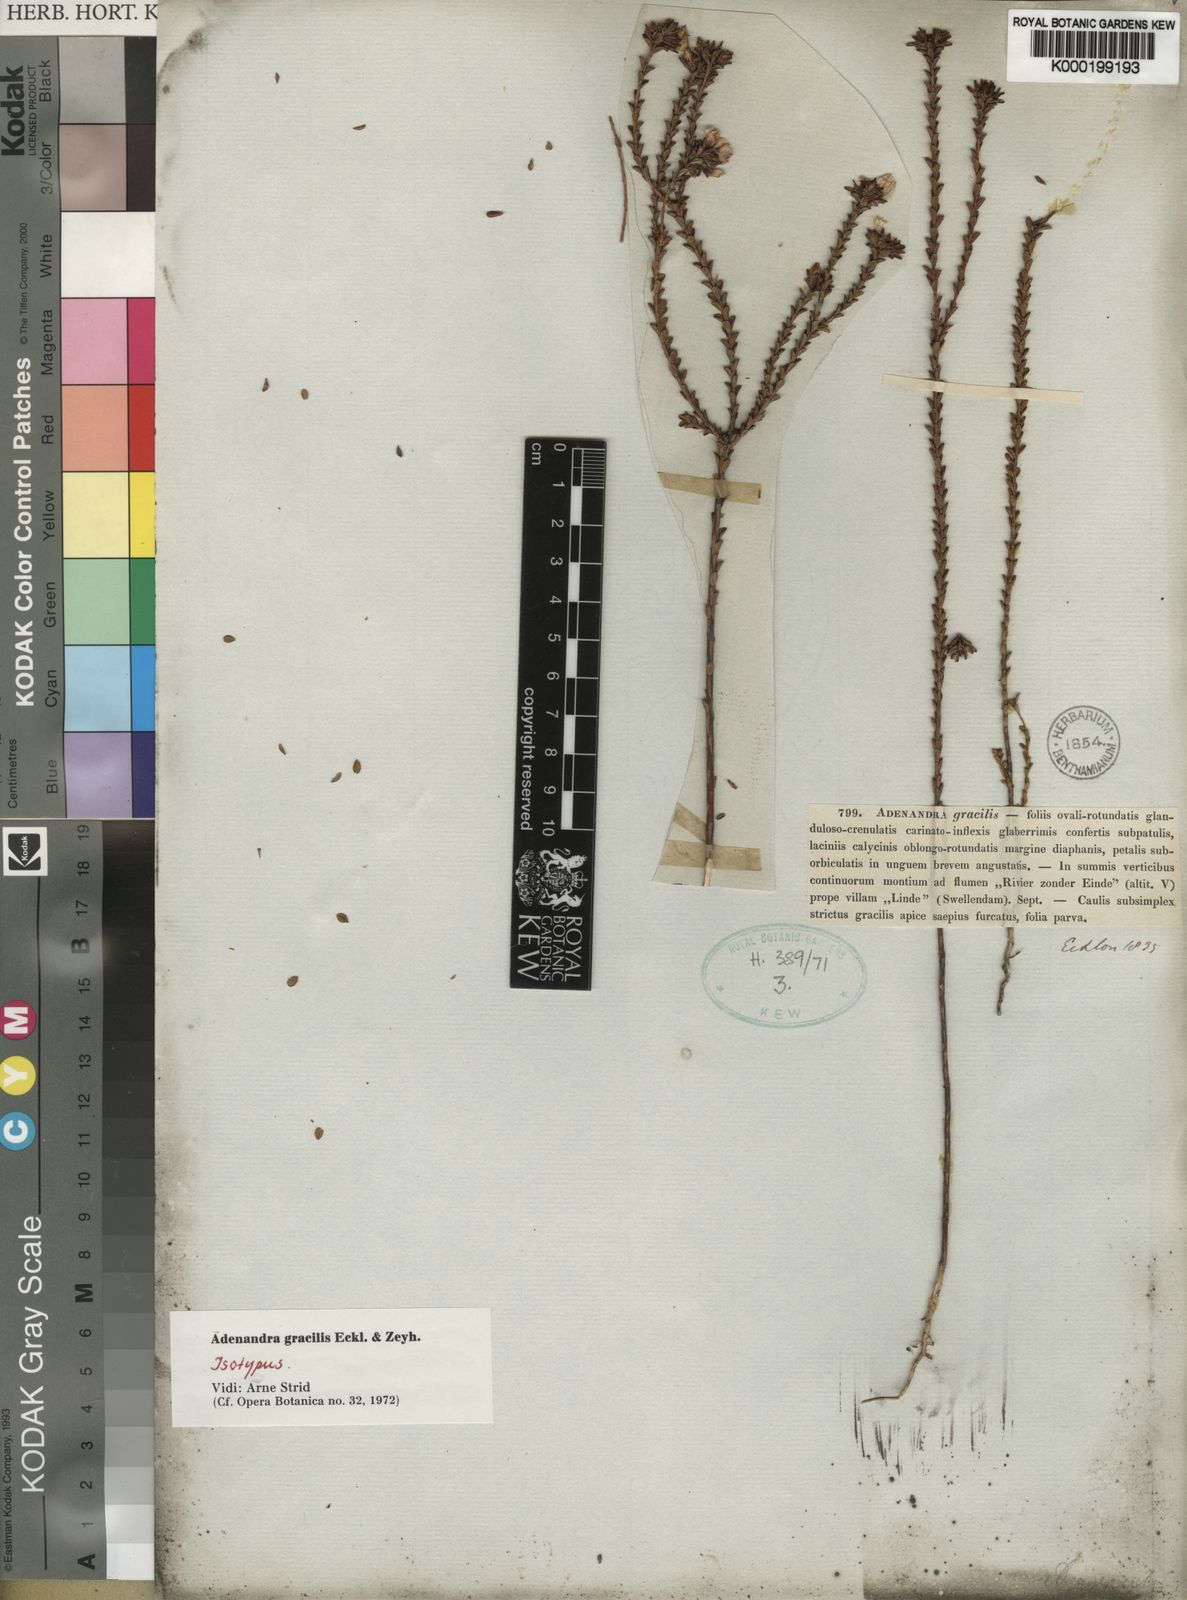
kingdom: Plantae
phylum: Tracheophyta
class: Magnoliopsida
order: Sapindales
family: Rutaceae
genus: Adenandra
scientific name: Adenandra gracilis
